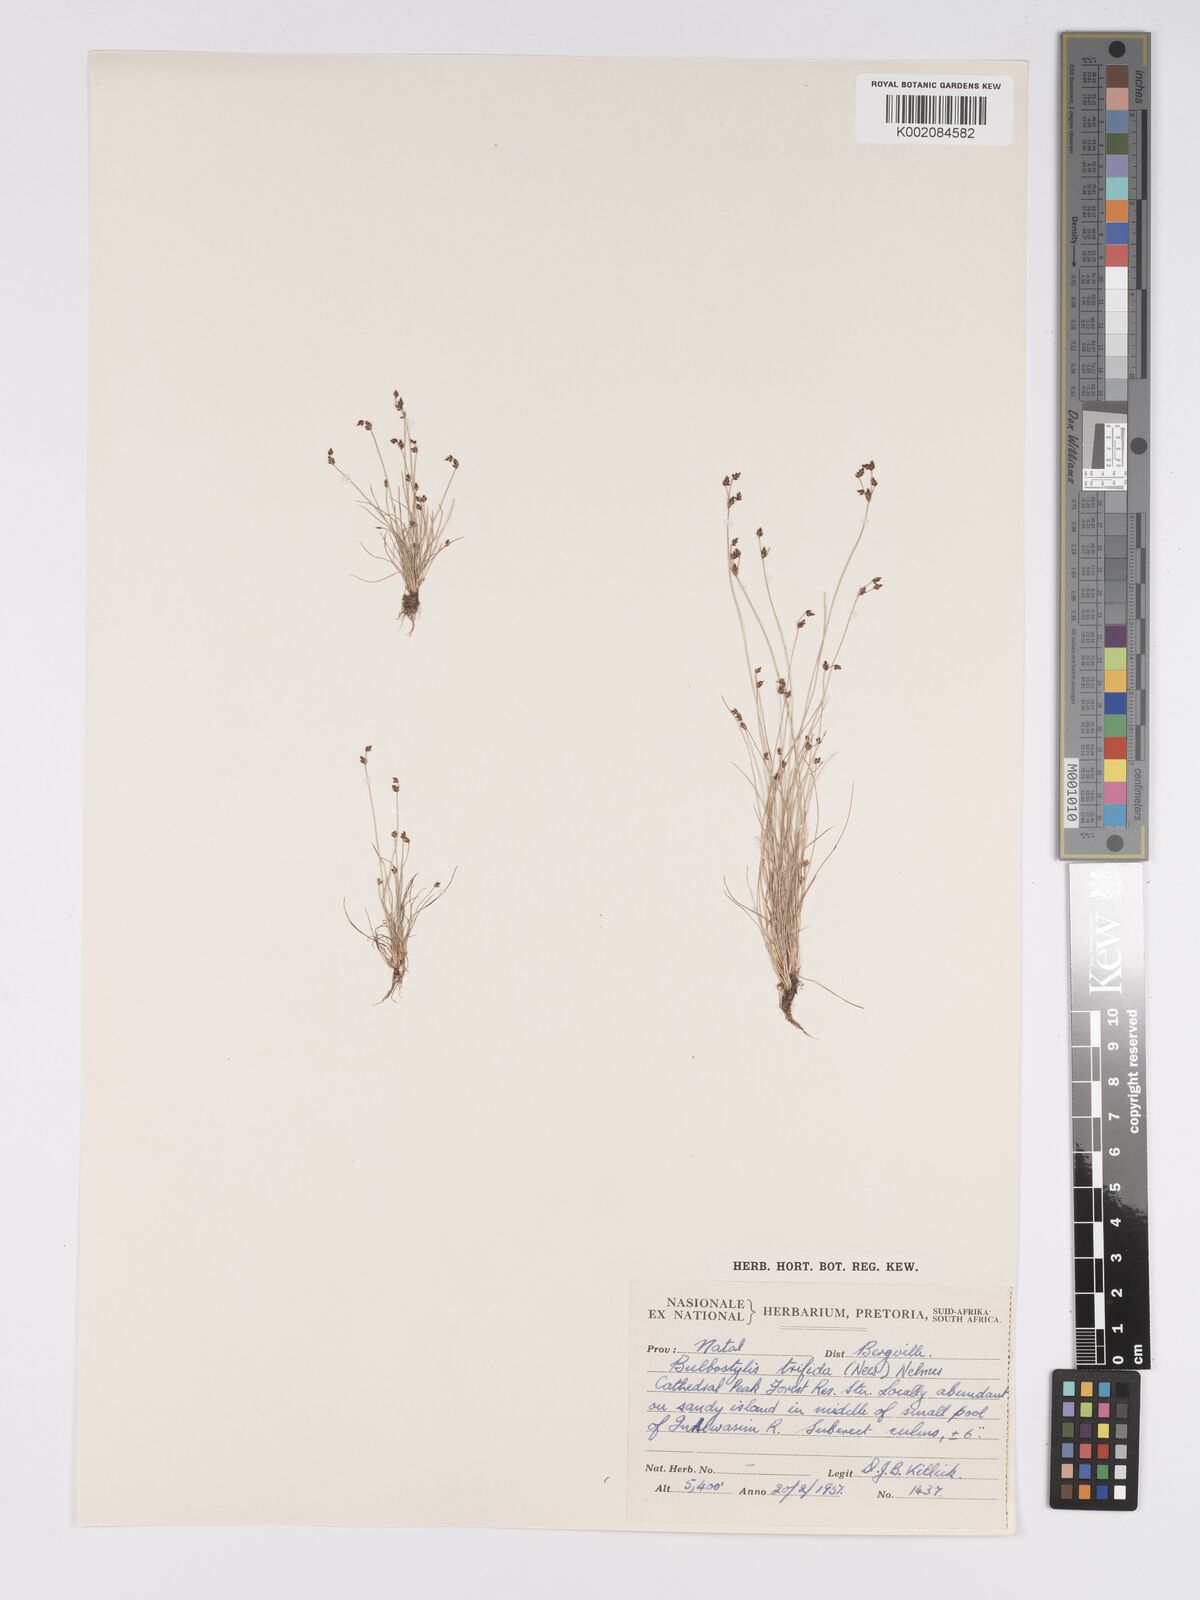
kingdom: Plantae
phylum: Tracheophyta
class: Liliopsida
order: Poales
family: Cyperaceae
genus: Bulbostylis
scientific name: Bulbostylis capillaris
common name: Densetuft hairsedge
